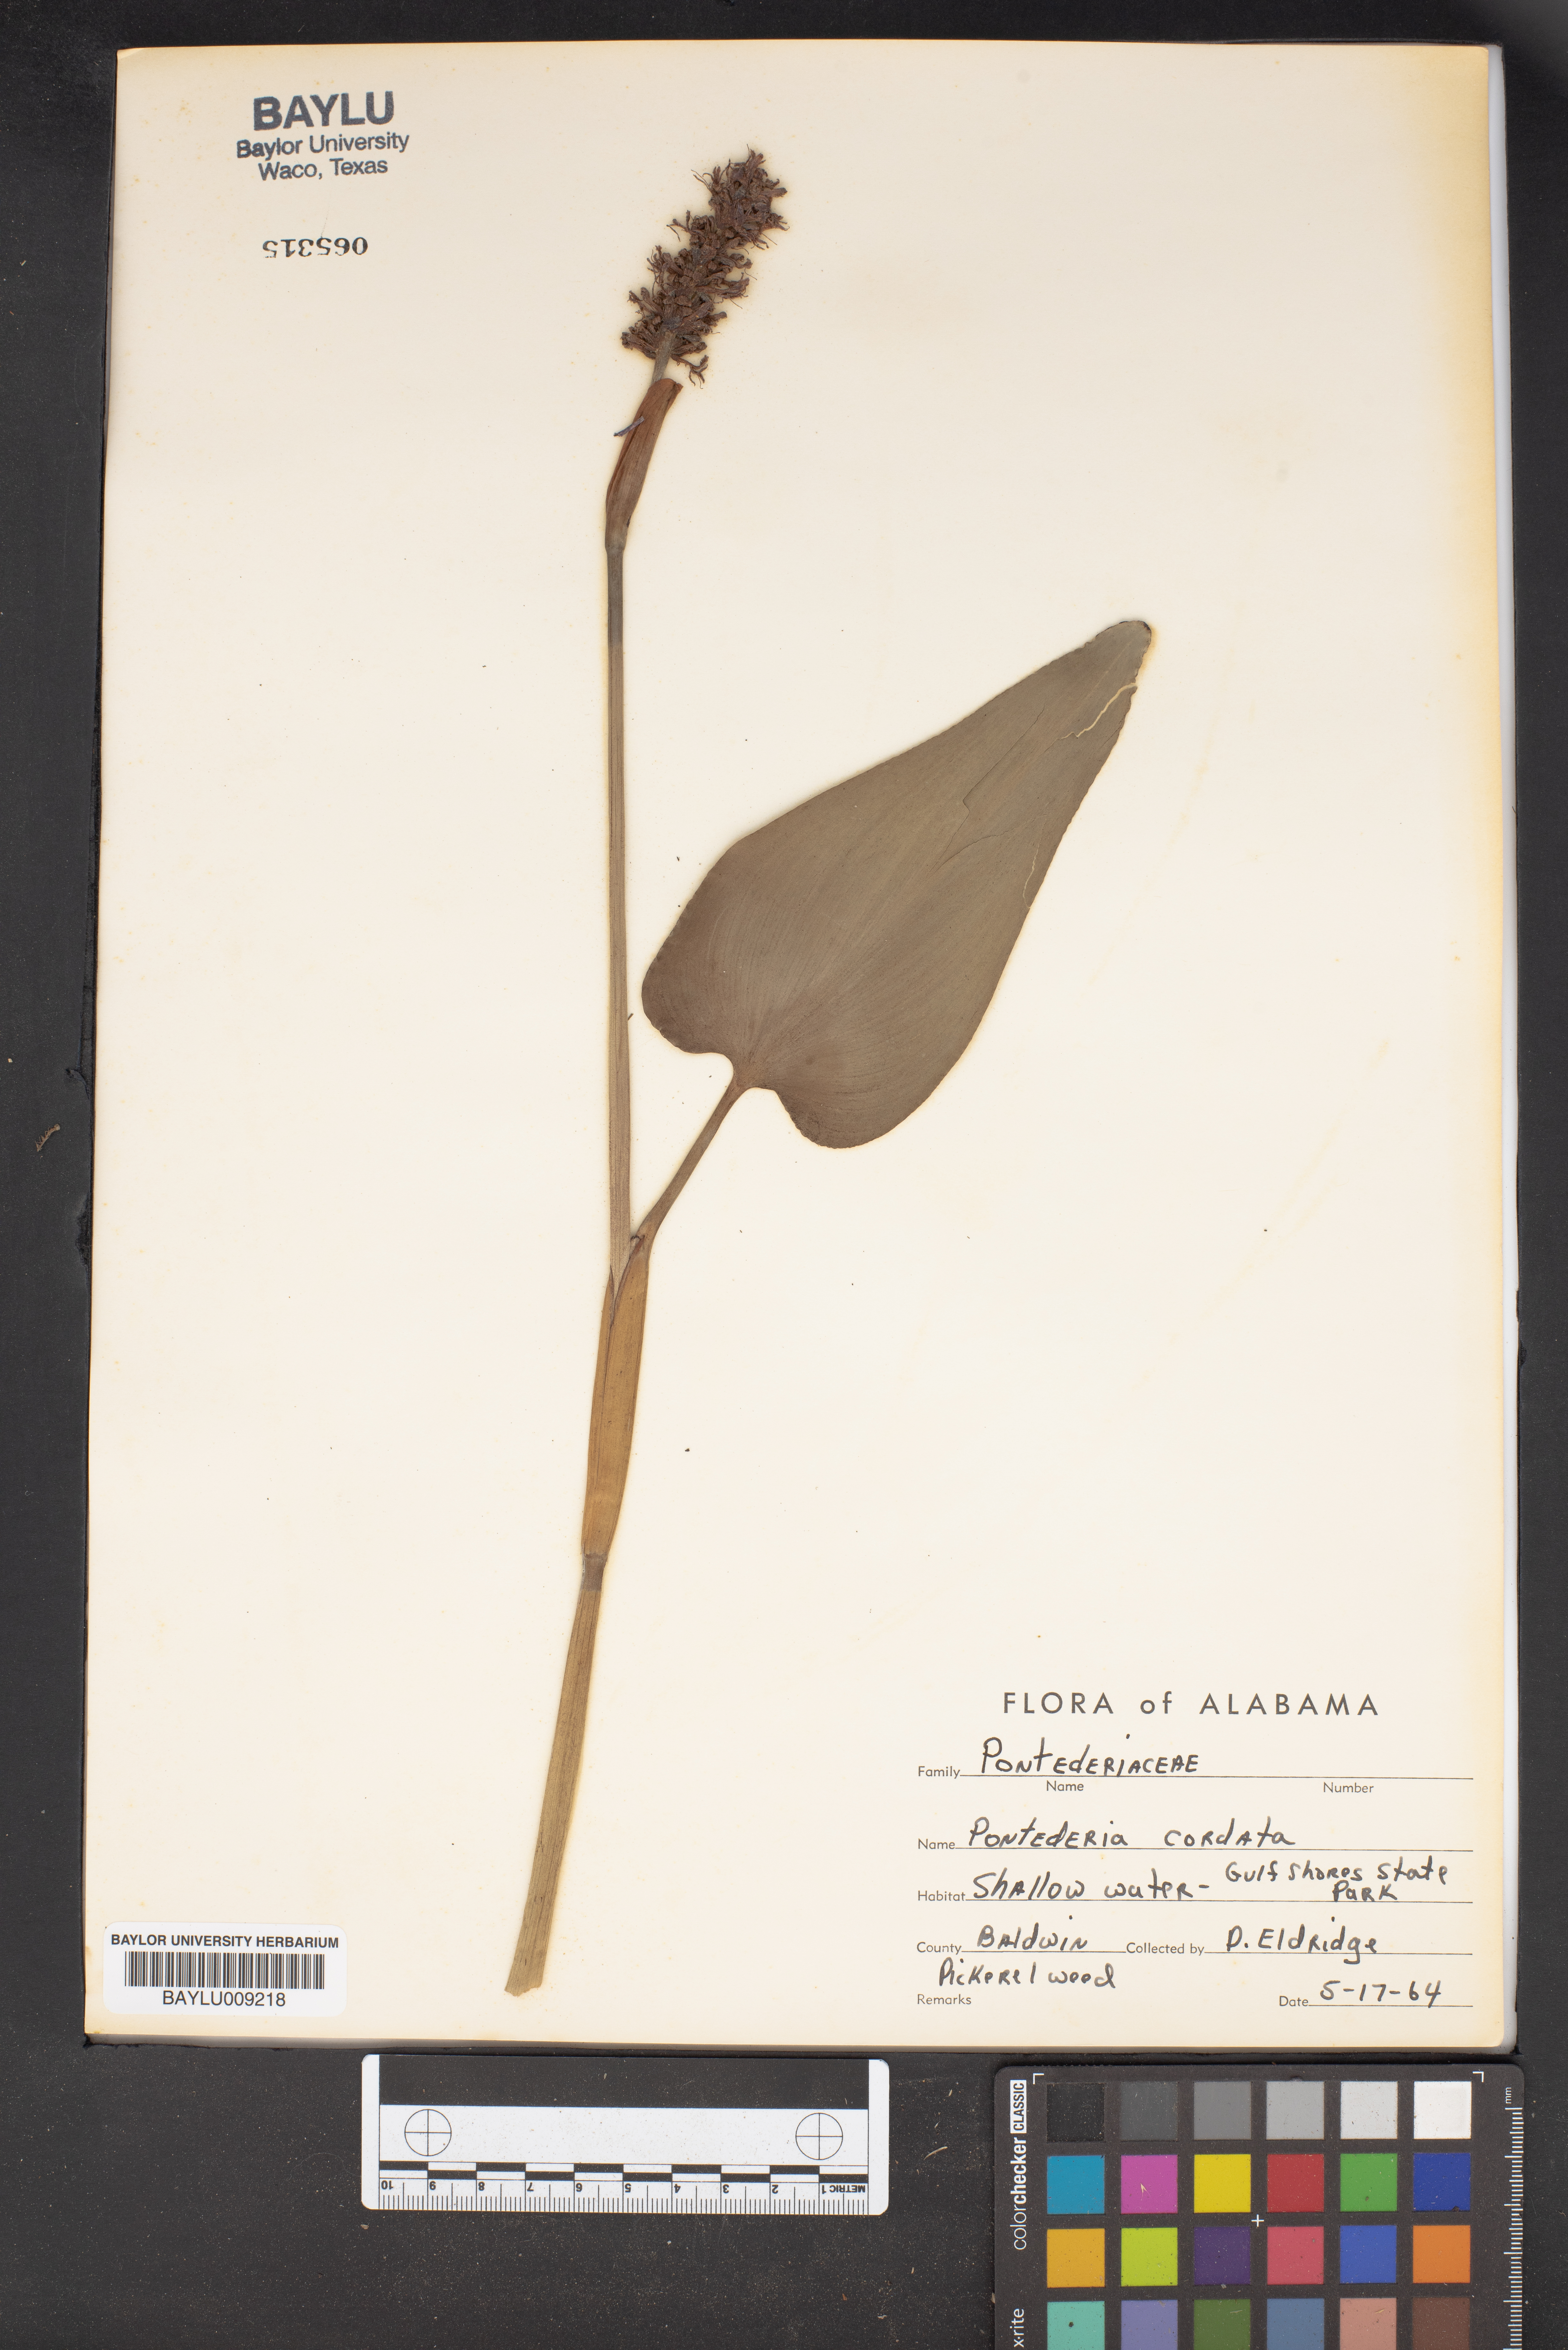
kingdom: Plantae
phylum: Tracheophyta
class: Liliopsida
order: Commelinales
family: Pontederiaceae
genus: Pontederia
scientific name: Pontederia cordata
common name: Pickerelweed
